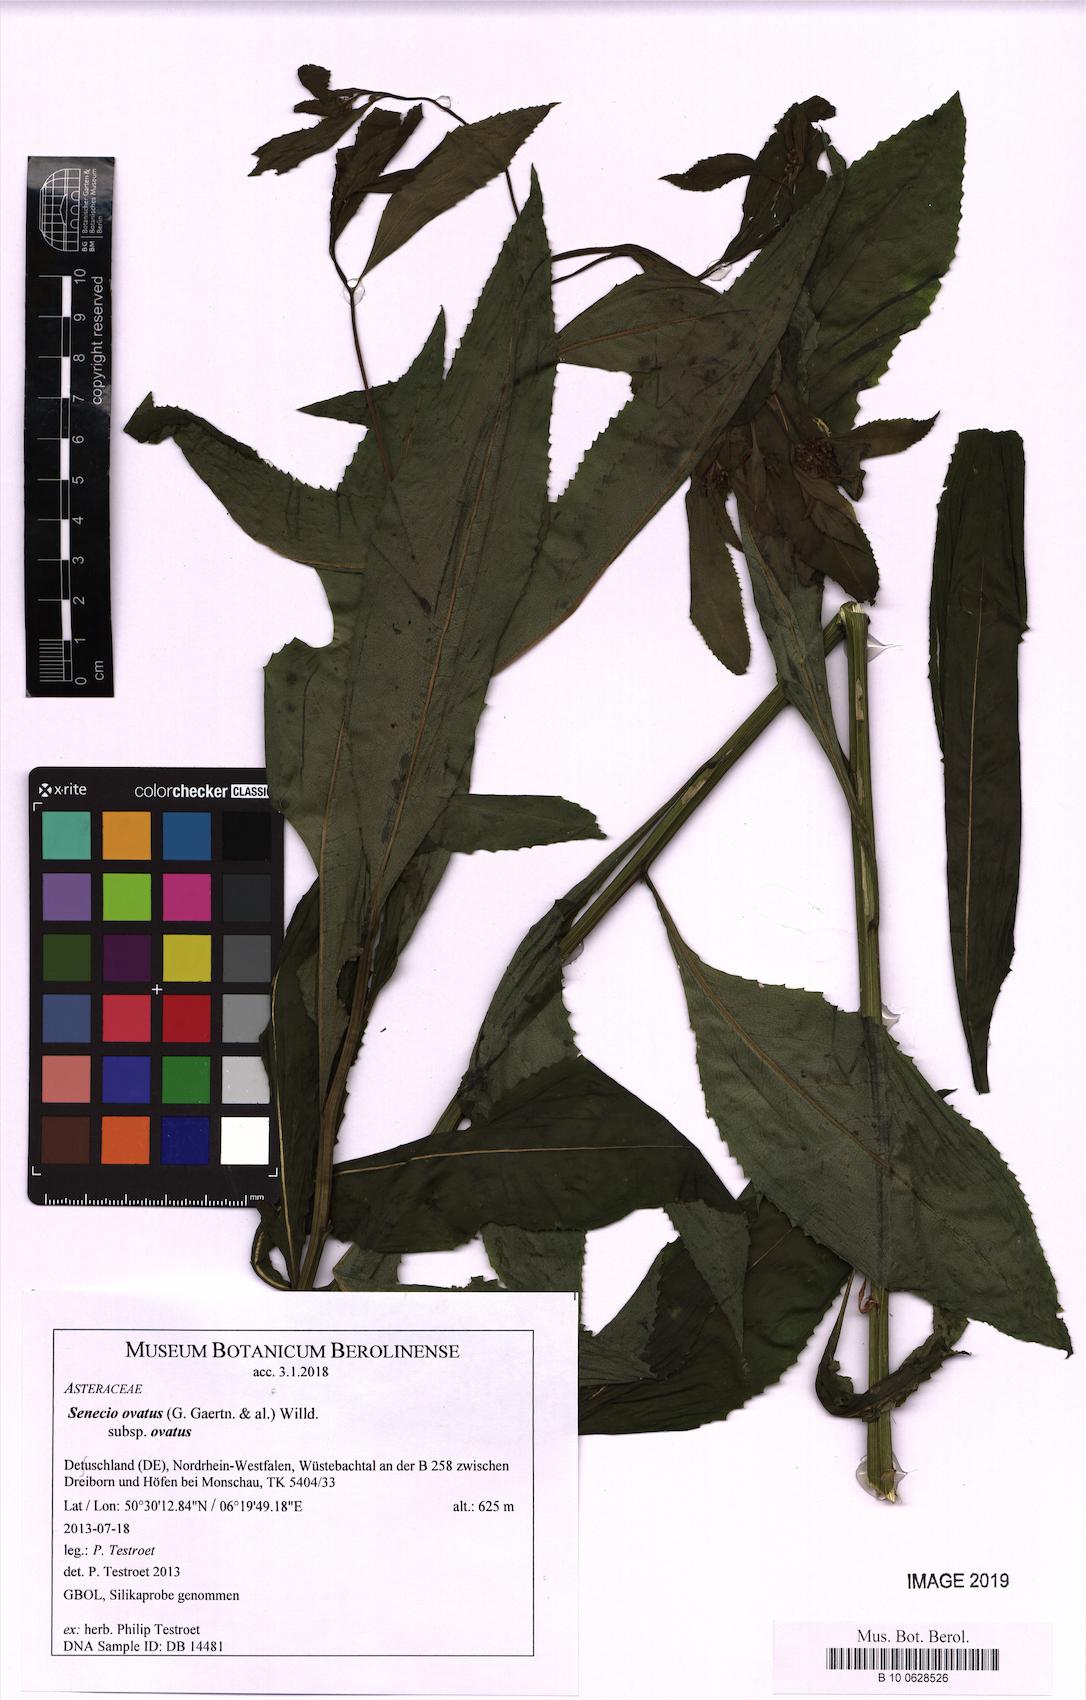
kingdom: Plantae
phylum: Tracheophyta
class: Magnoliopsida
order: Asterales
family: Asteraceae
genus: Senecio
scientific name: Senecio ovatus
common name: Wood ragwort
